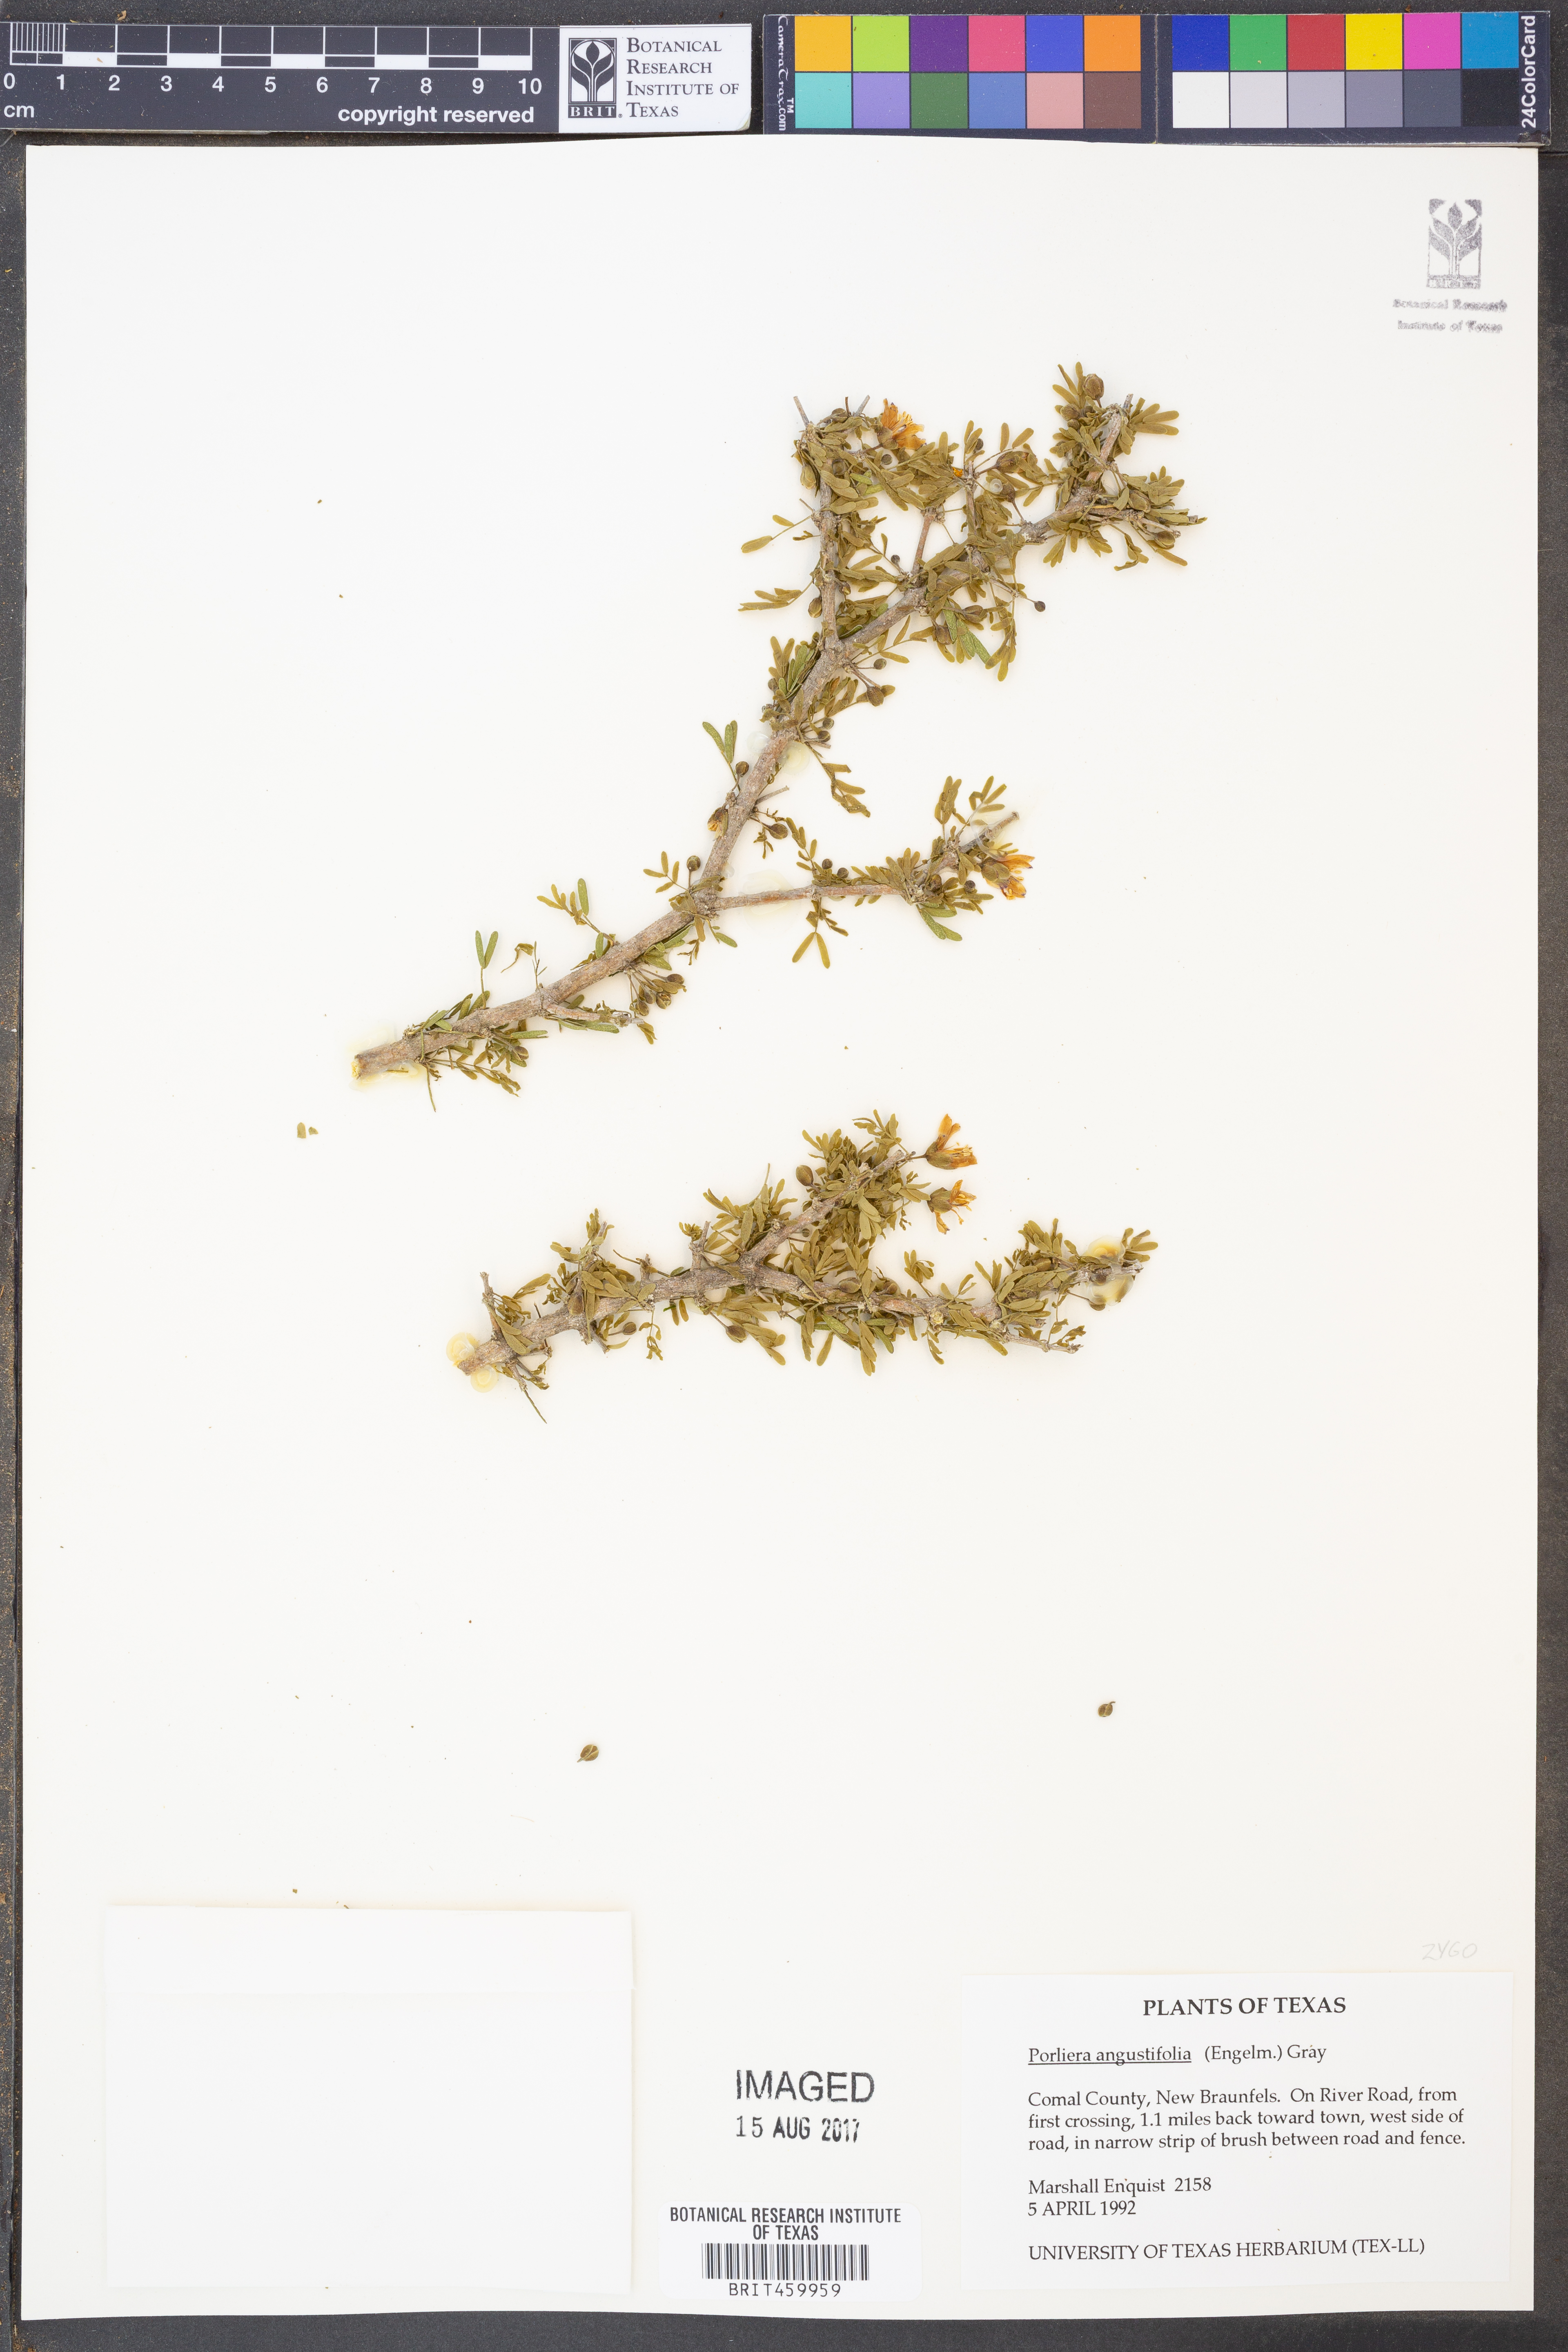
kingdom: Plantae
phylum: Tracheophyta
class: Magnoliopsida
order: Zygophyllales
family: Zygophyllaceae
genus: Porlieria
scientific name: Porlieria angustifolia
